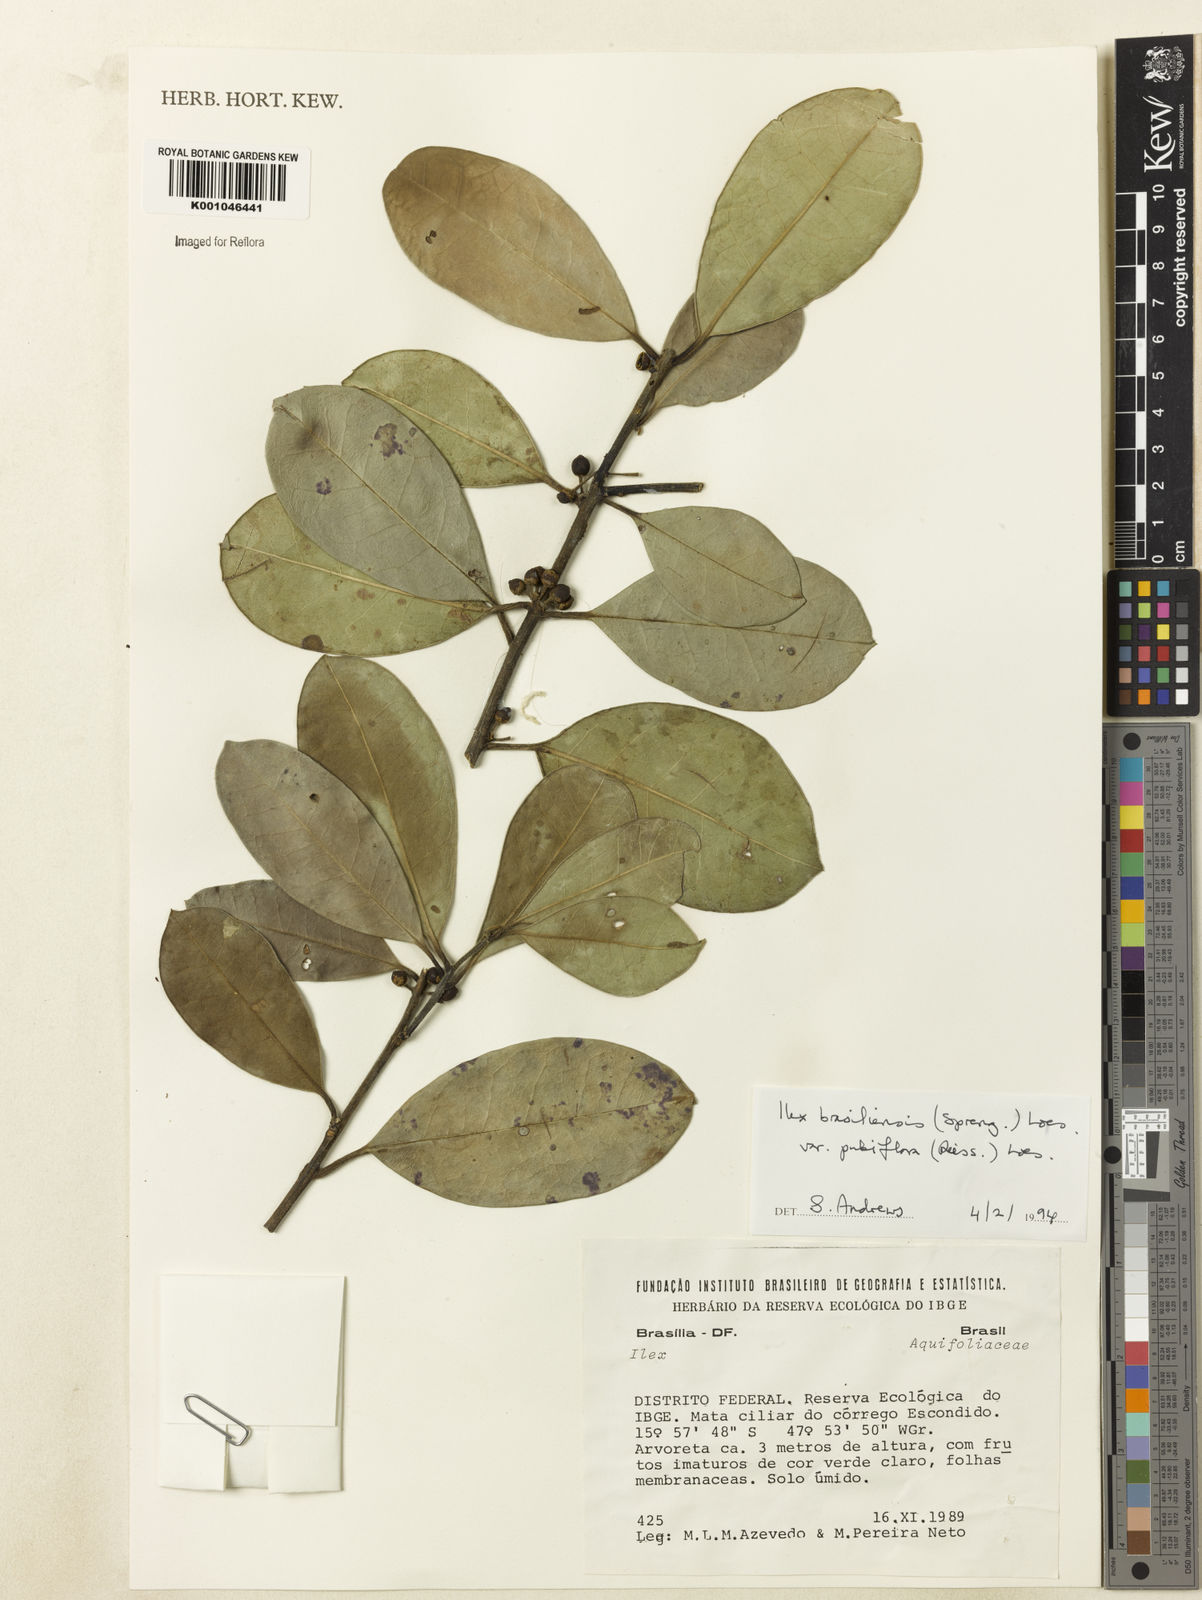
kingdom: Plantae
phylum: Tracheophyta
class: Magnoliopsida
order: Aquifoliales
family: Aquifoliaceae
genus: Ilex
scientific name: Ilex brasiliensis
